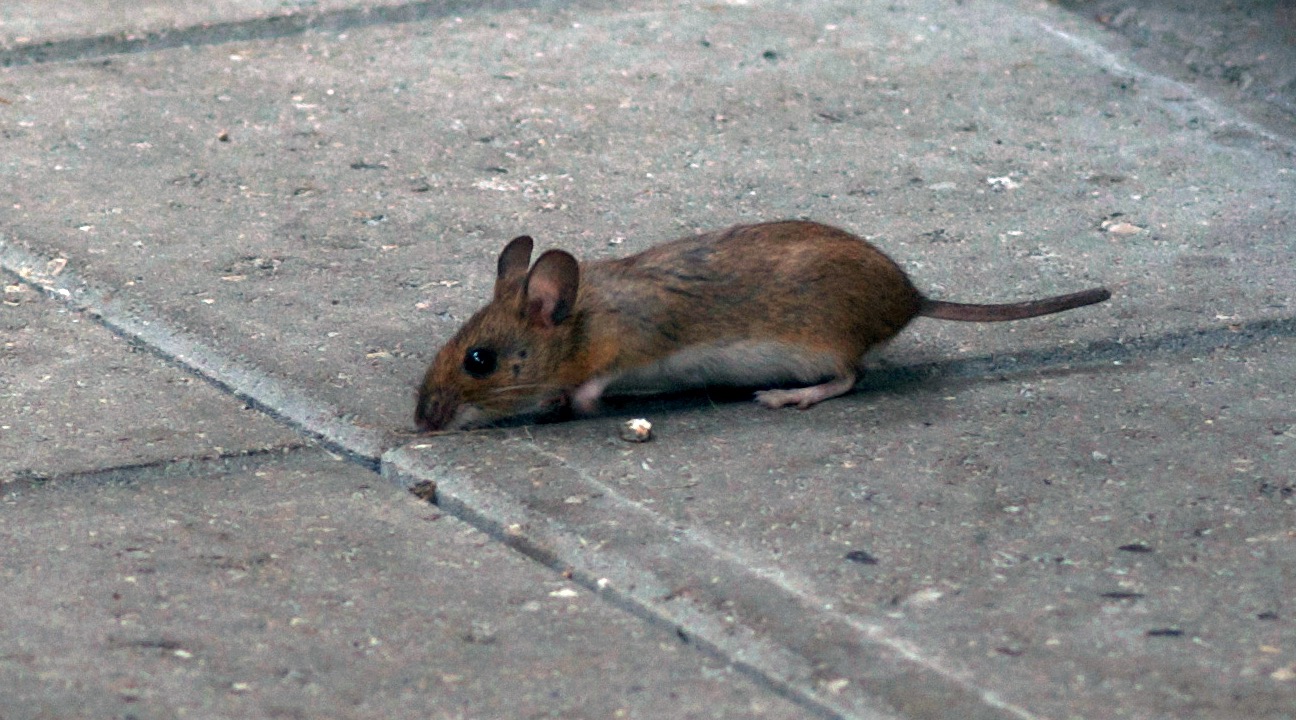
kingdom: Animalia
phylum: Chordata
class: Mammalia
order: Rodentia
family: Muridae
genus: Apodemus
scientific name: Apodemus flavicollis
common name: Halsbåndmus
